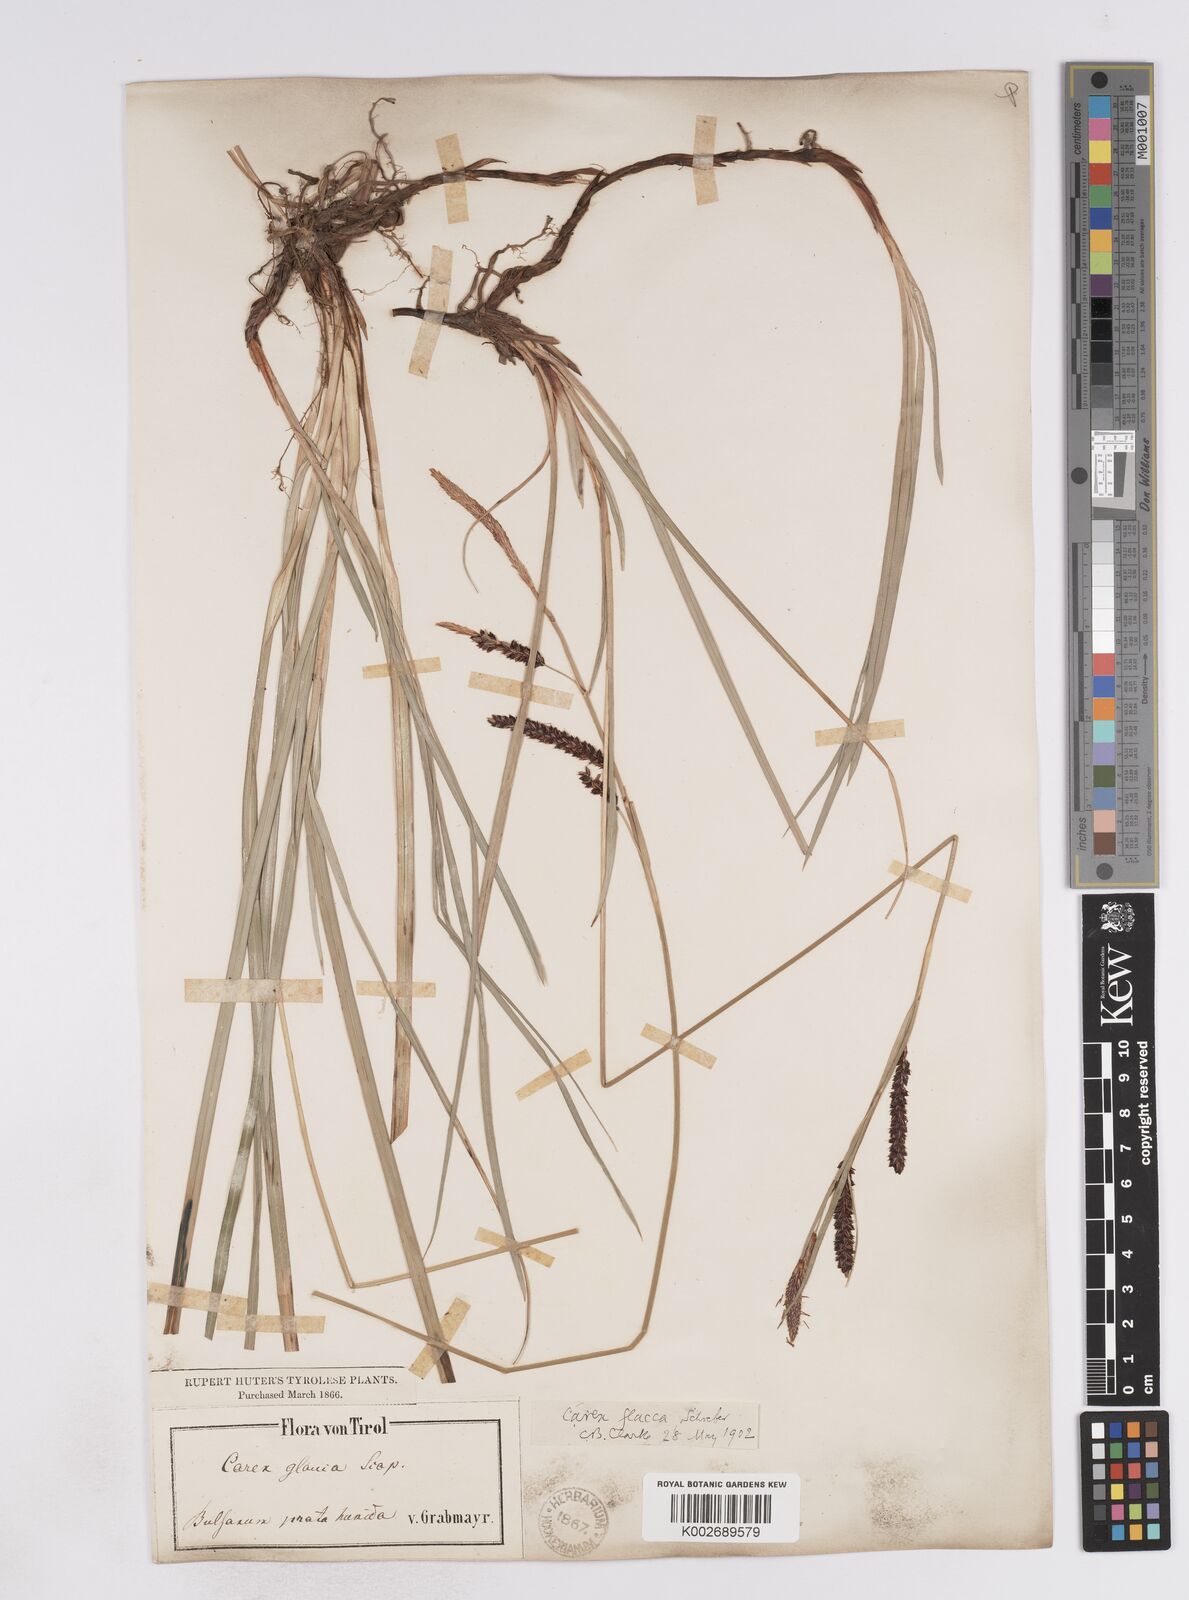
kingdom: Plantae
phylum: Tracheophyta
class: Liliopsida
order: Poales
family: Cyperaceae
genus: Carex
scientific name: Carex flacca
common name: Glaucous sedge
